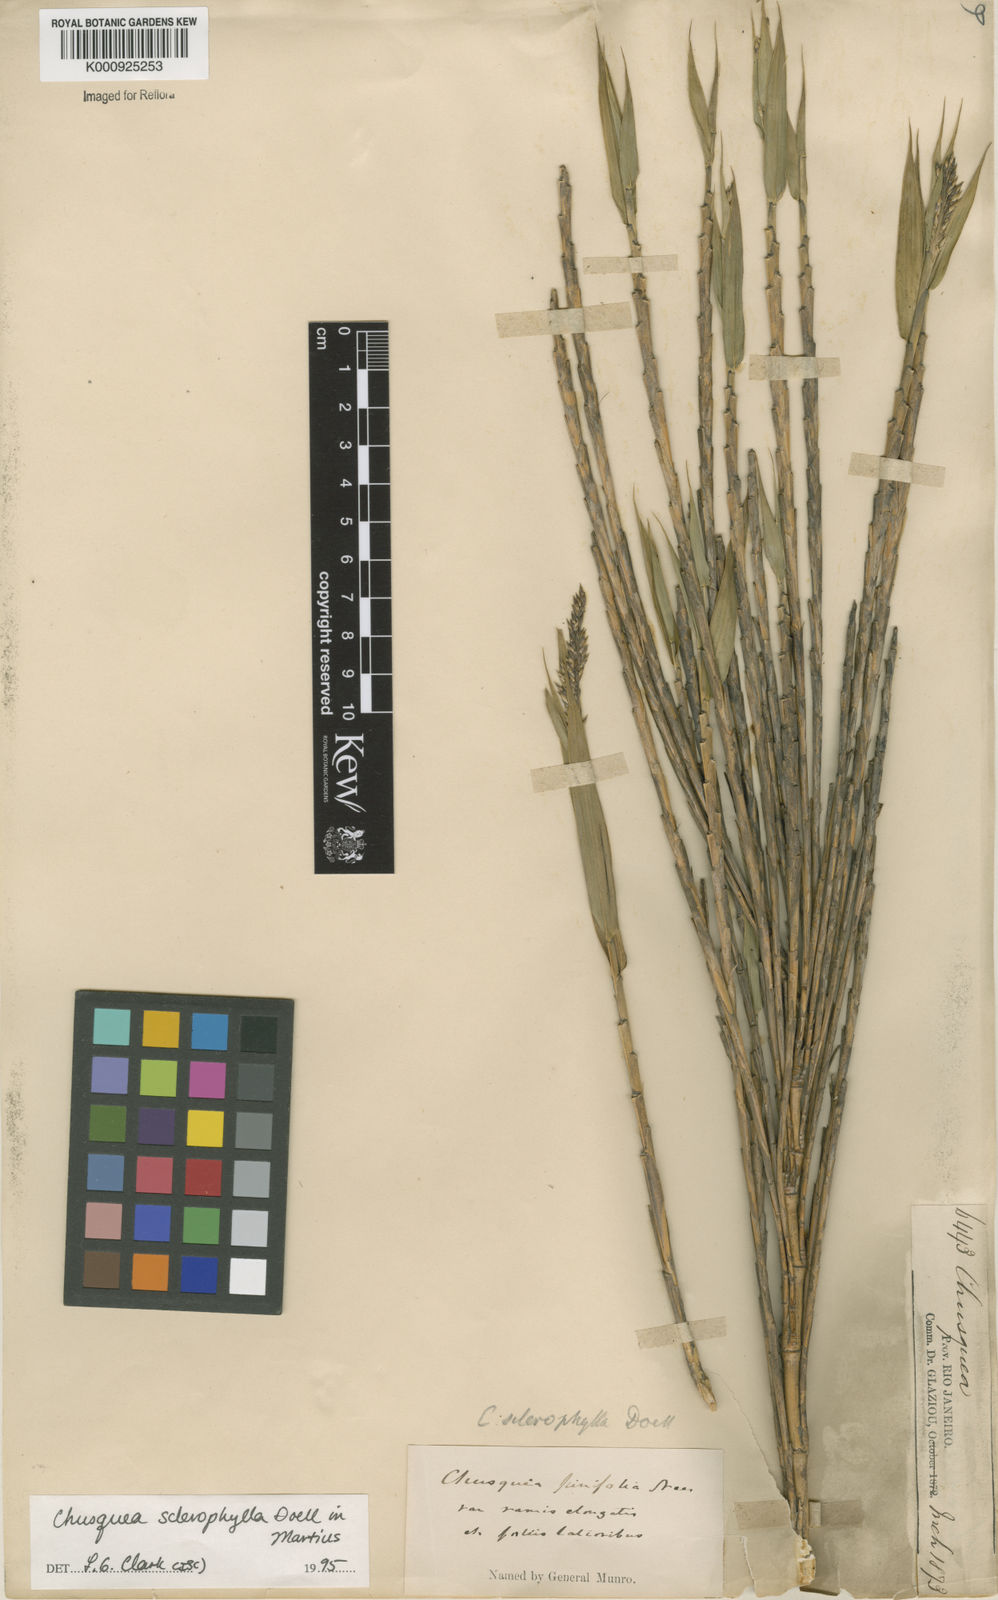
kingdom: Plantae
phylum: Tracheophyta
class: Liliopsida
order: Poales
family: Poaceae
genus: Chusquea
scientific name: Chusquea
